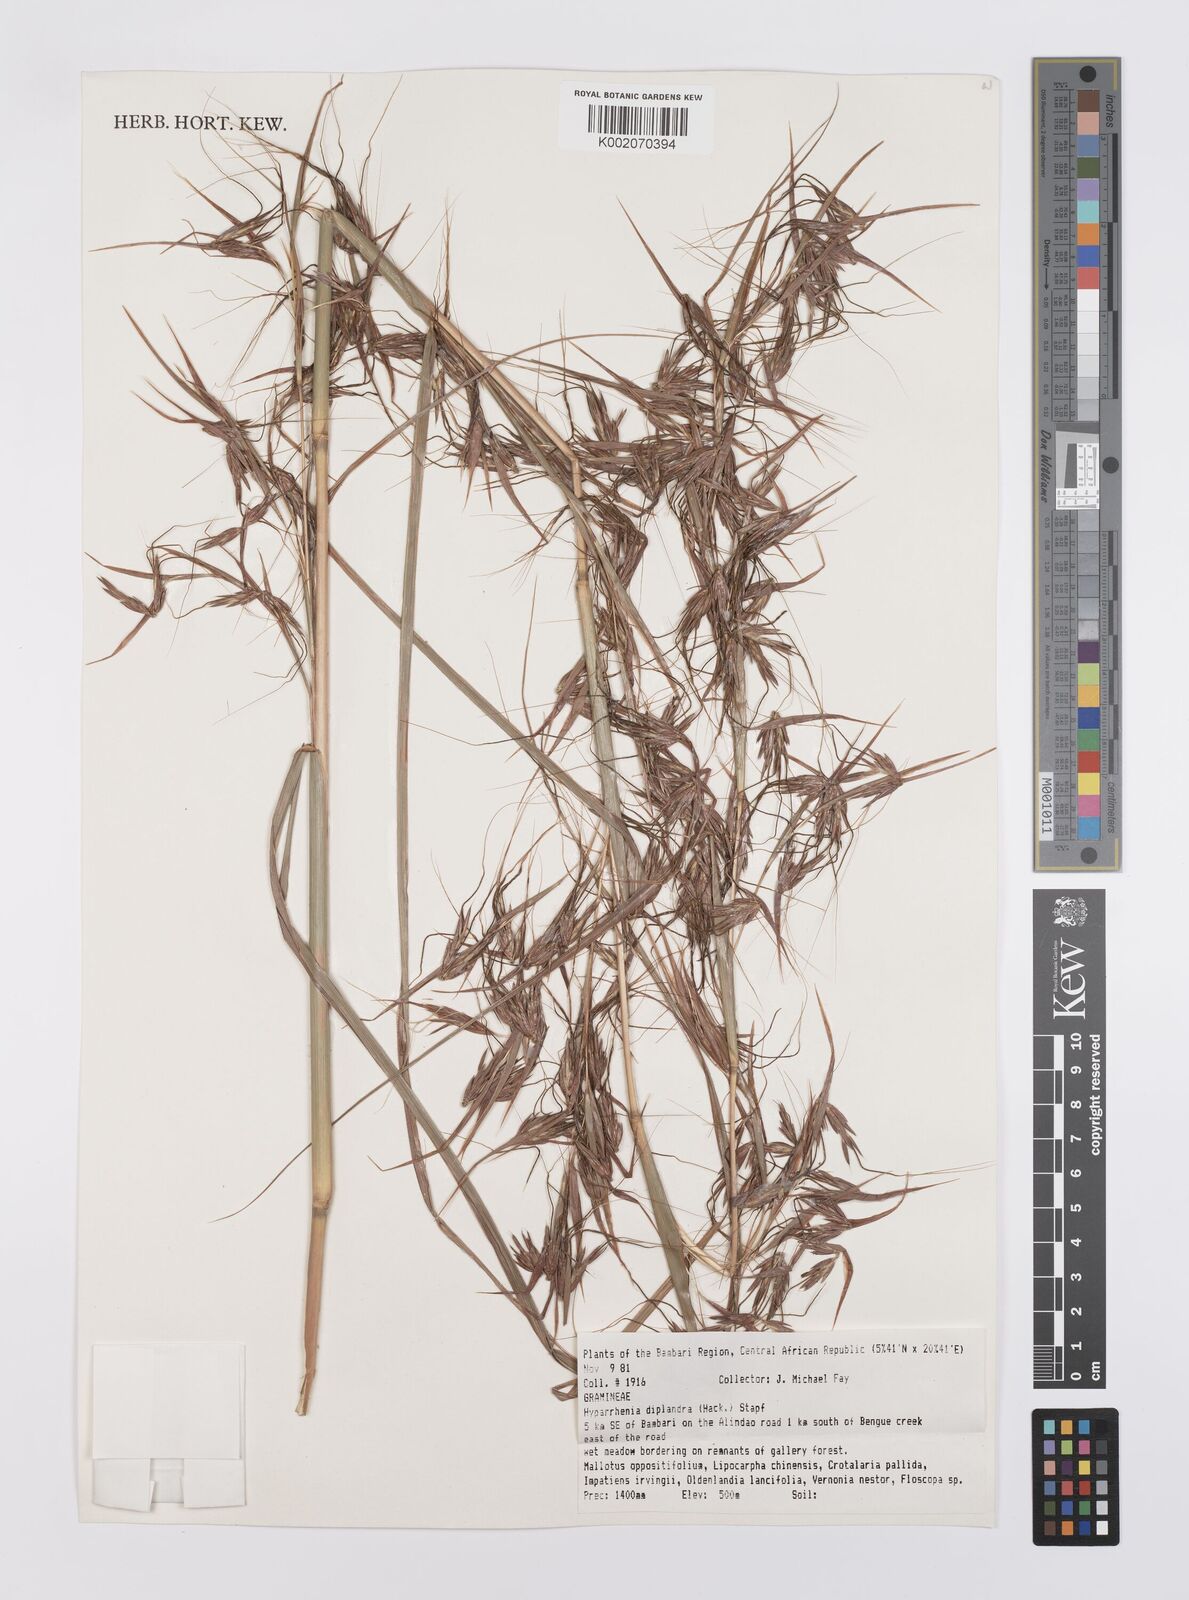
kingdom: Plantae
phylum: Tracheophyta
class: Liliopsida
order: Poales
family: Poaceae
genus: Hyparrhenia
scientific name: Hyparrhenia diplandra
